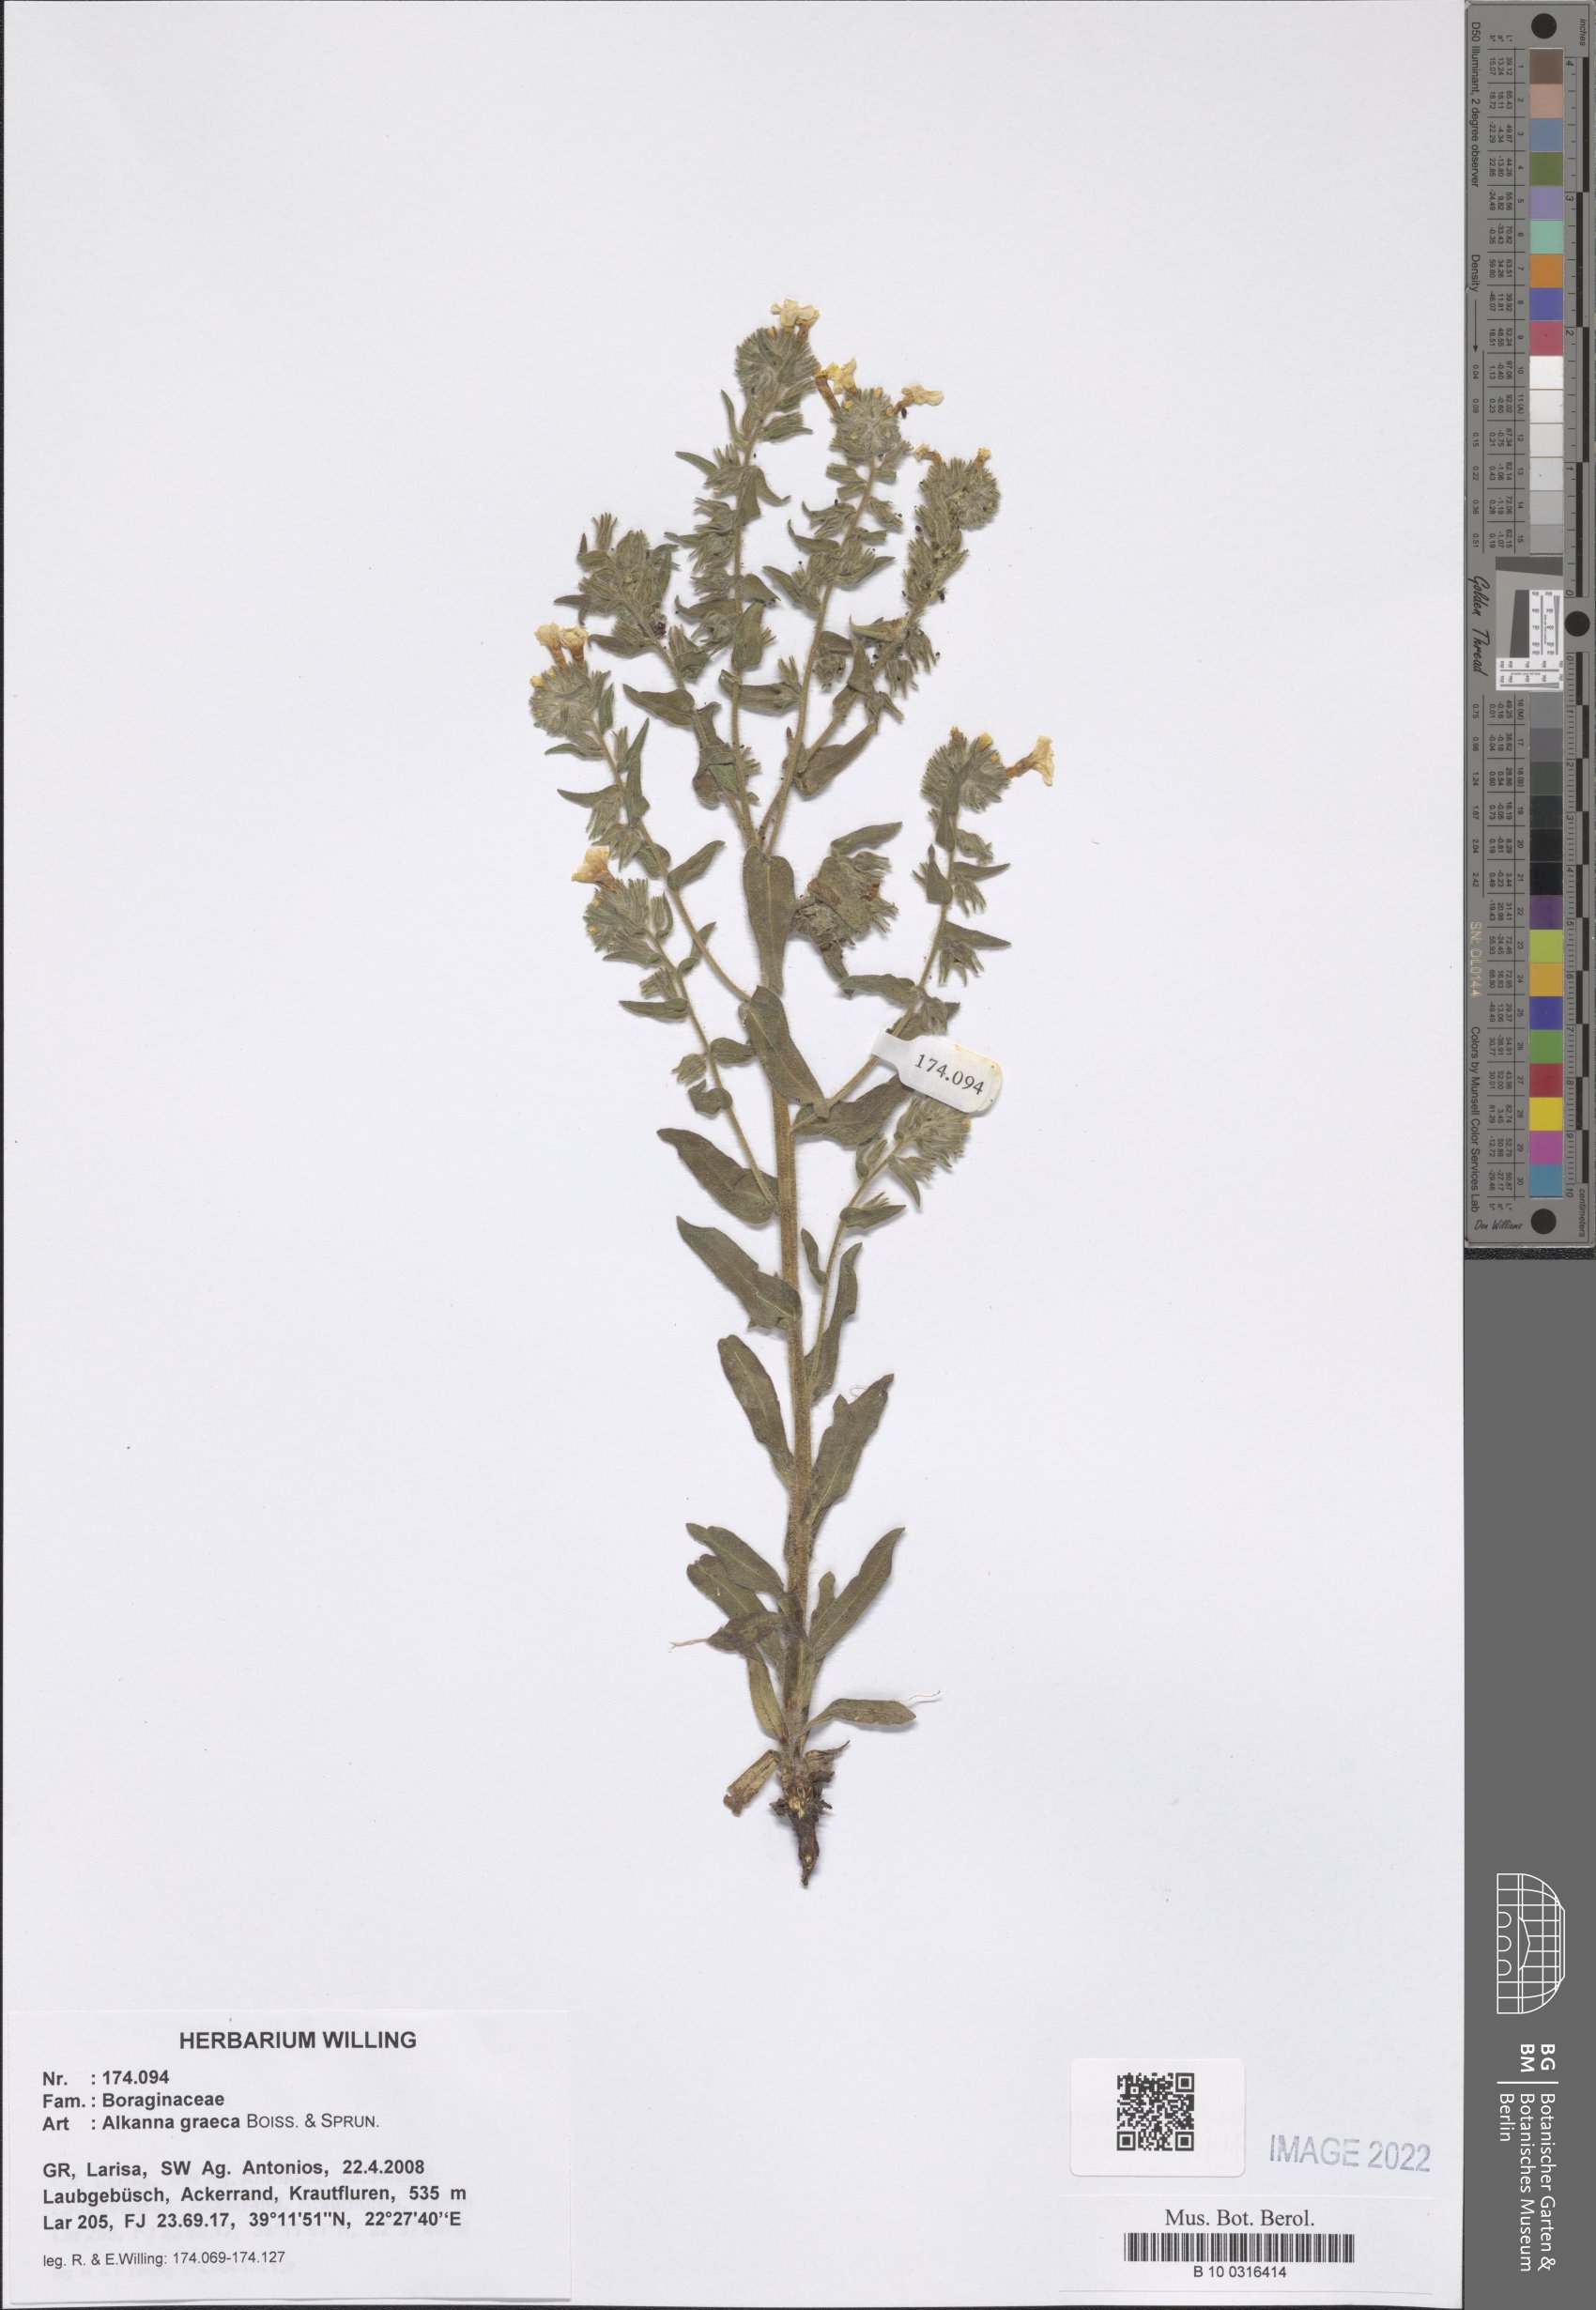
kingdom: Plantae
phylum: Tracheophyta
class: Magnoliopsida
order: Boraginales
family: Boraginaceae
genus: Alkanna
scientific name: Alkanna graeca
